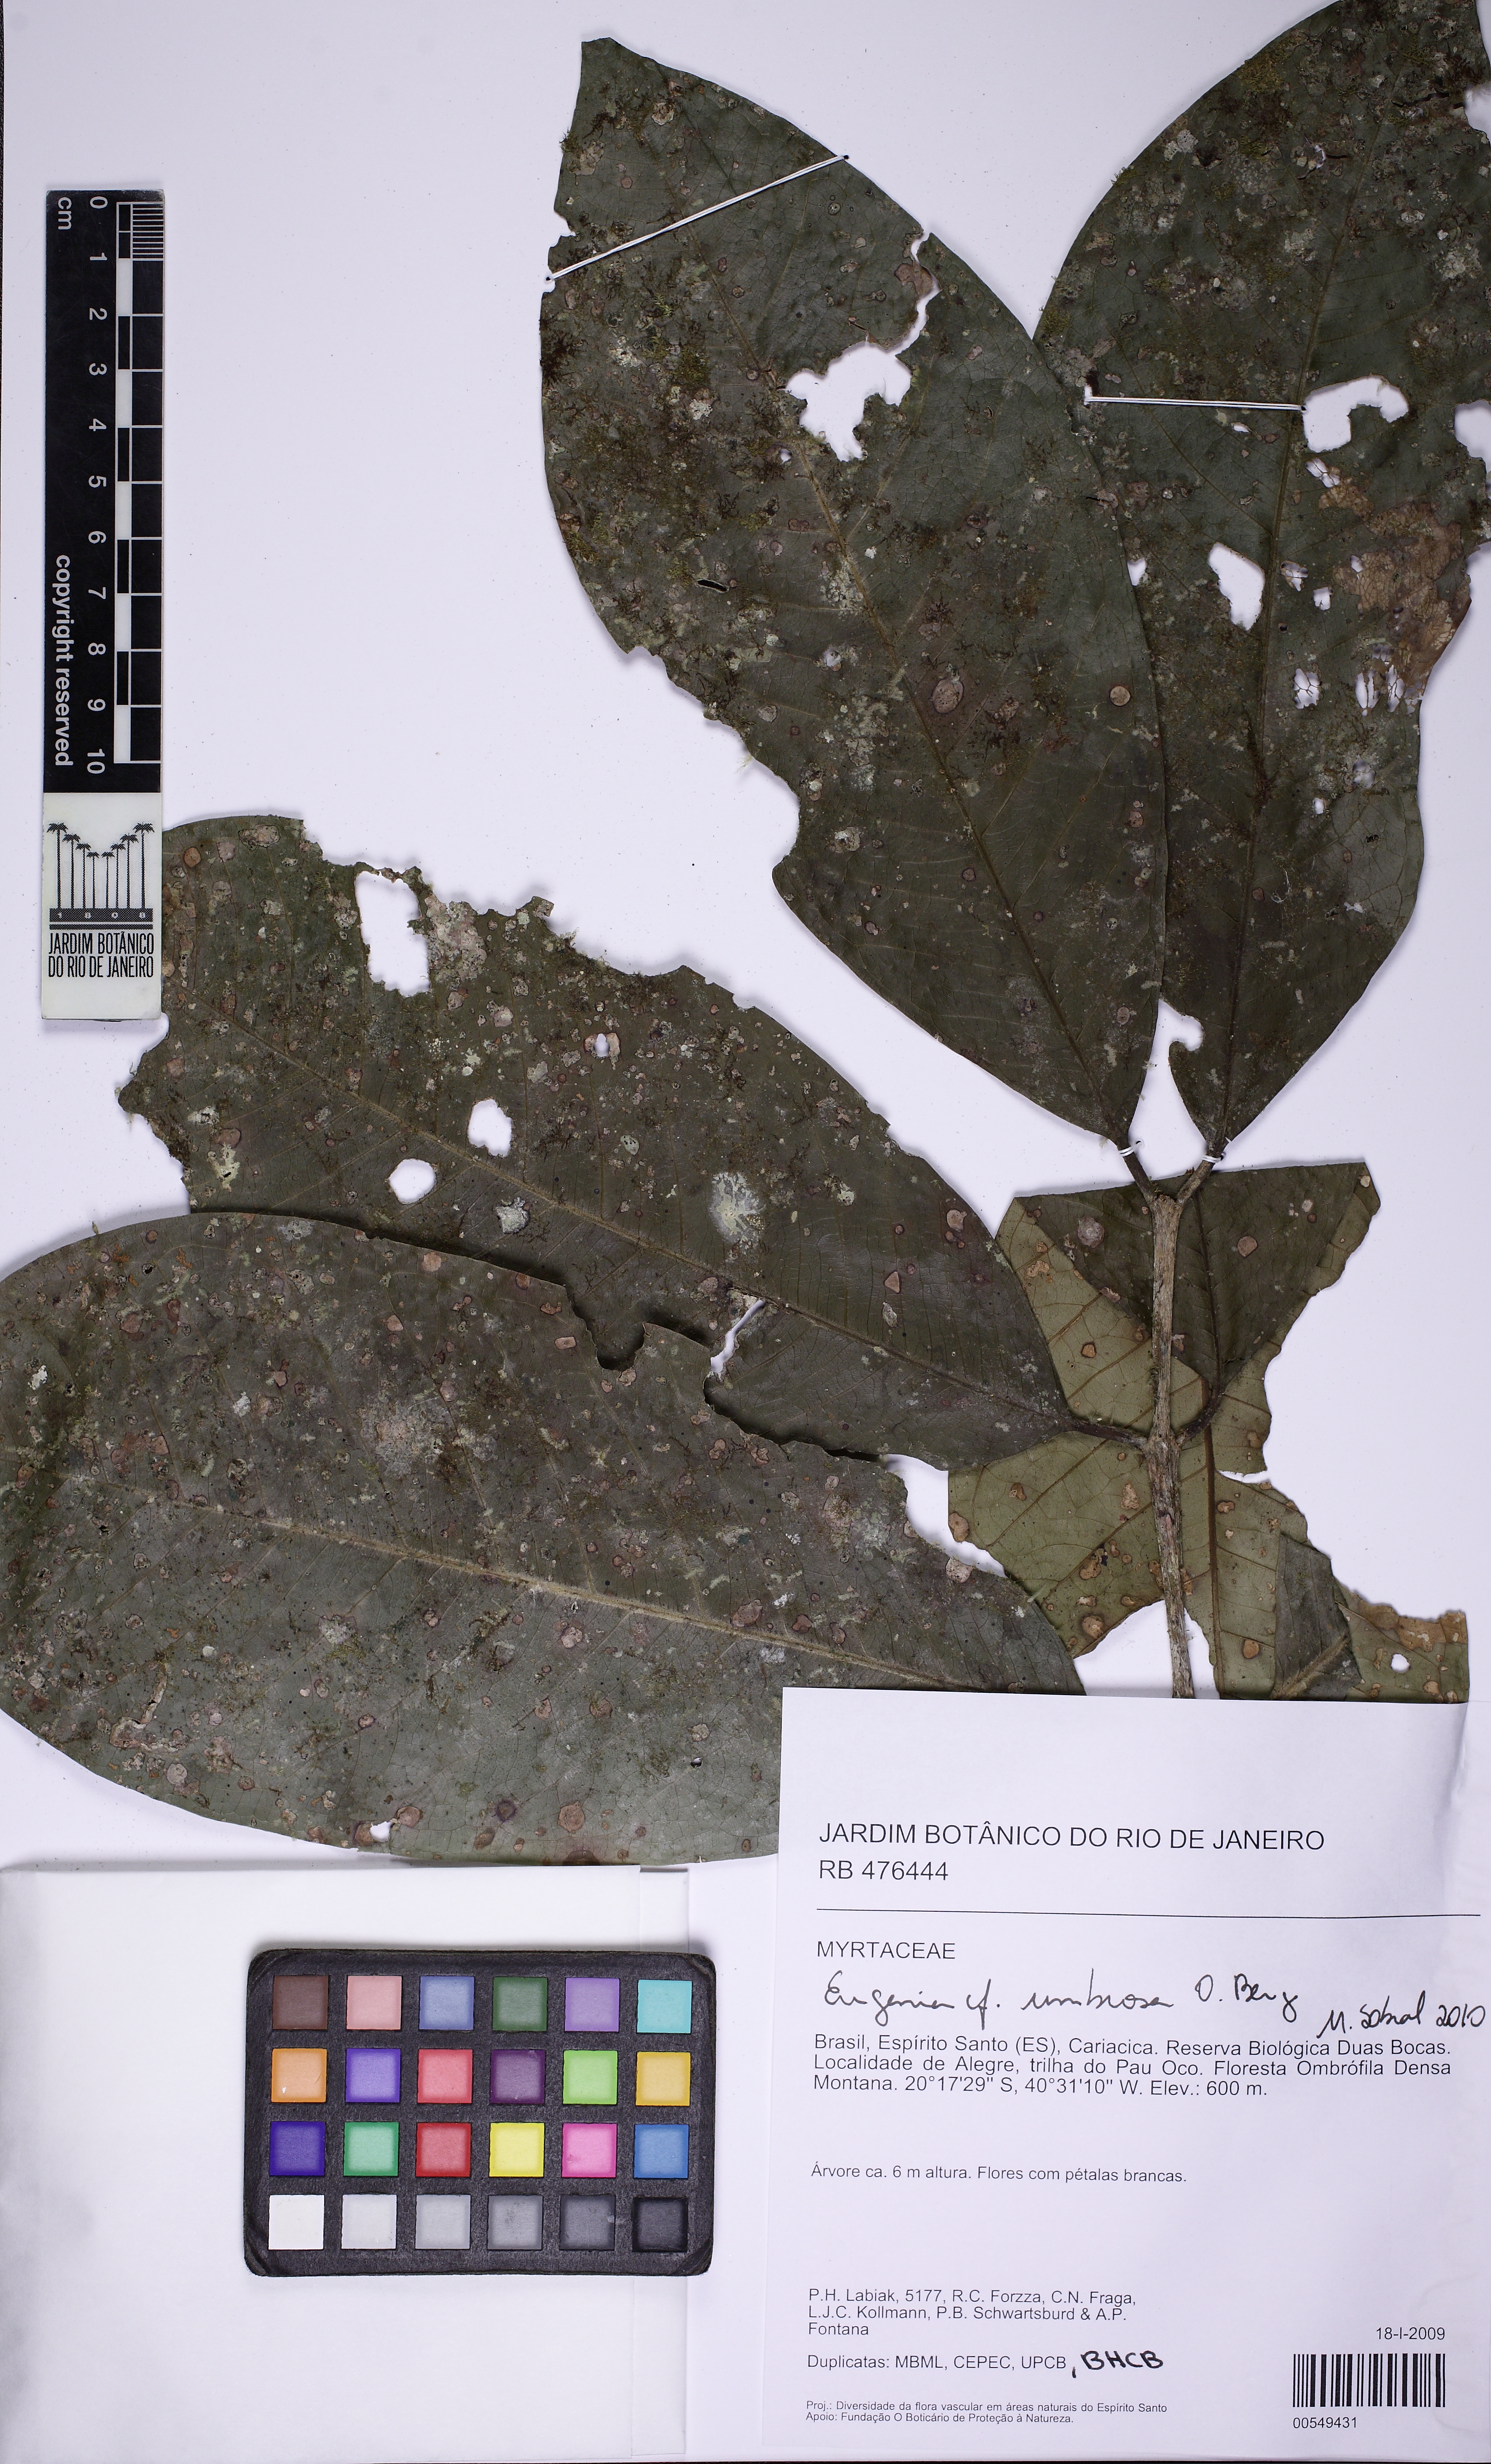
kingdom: Plantae
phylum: Tracheophyta
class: Magnoliopsida
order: Myrtales
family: Myrtaceae
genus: Eugenia
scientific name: Eugenia umbrosa
